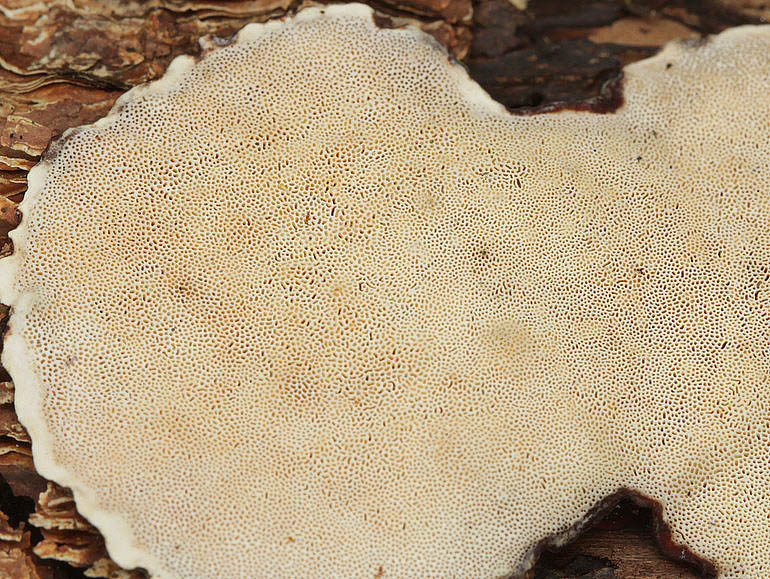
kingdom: Fungi
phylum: Basidiomycota
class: Agaricomycetes
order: Russulales
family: Bondarzewiaceae
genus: Heterobasidion
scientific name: Heterobasidion annosum
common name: almindelig rodfordærver
